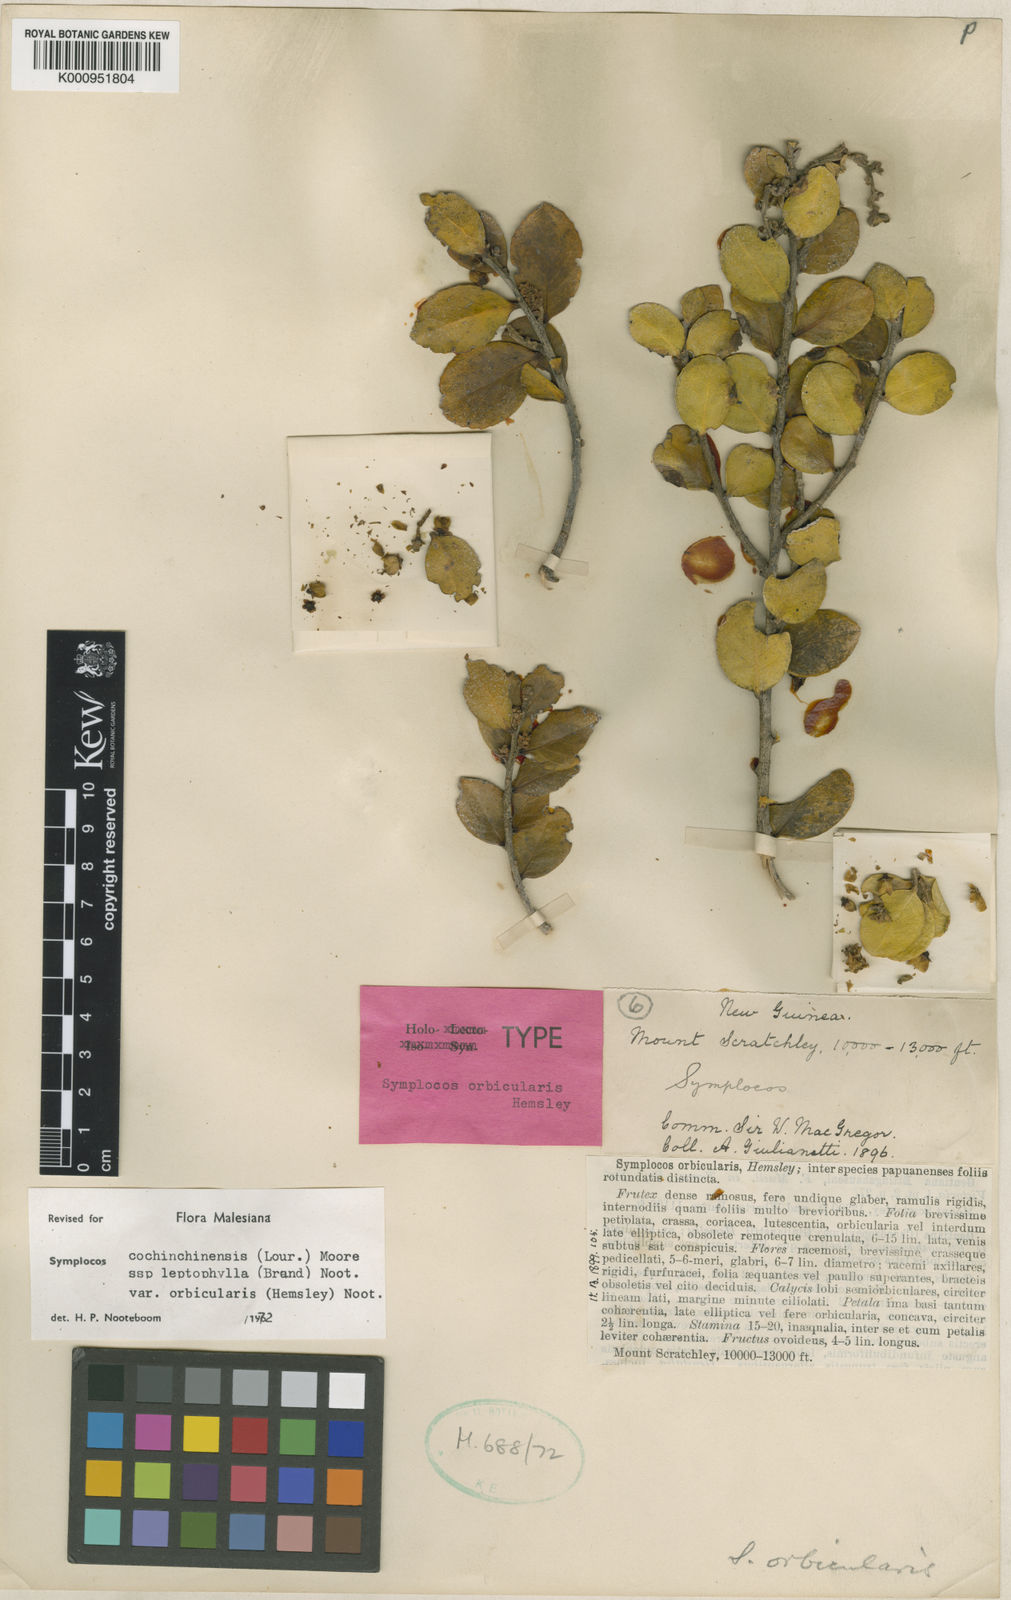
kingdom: Plantae
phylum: Tracheophyta
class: Magnoliopsida
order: Ericales
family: Symplocaceae
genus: Symplocos
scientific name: Symplocos cochinchinensis
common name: Buff hazelwood
